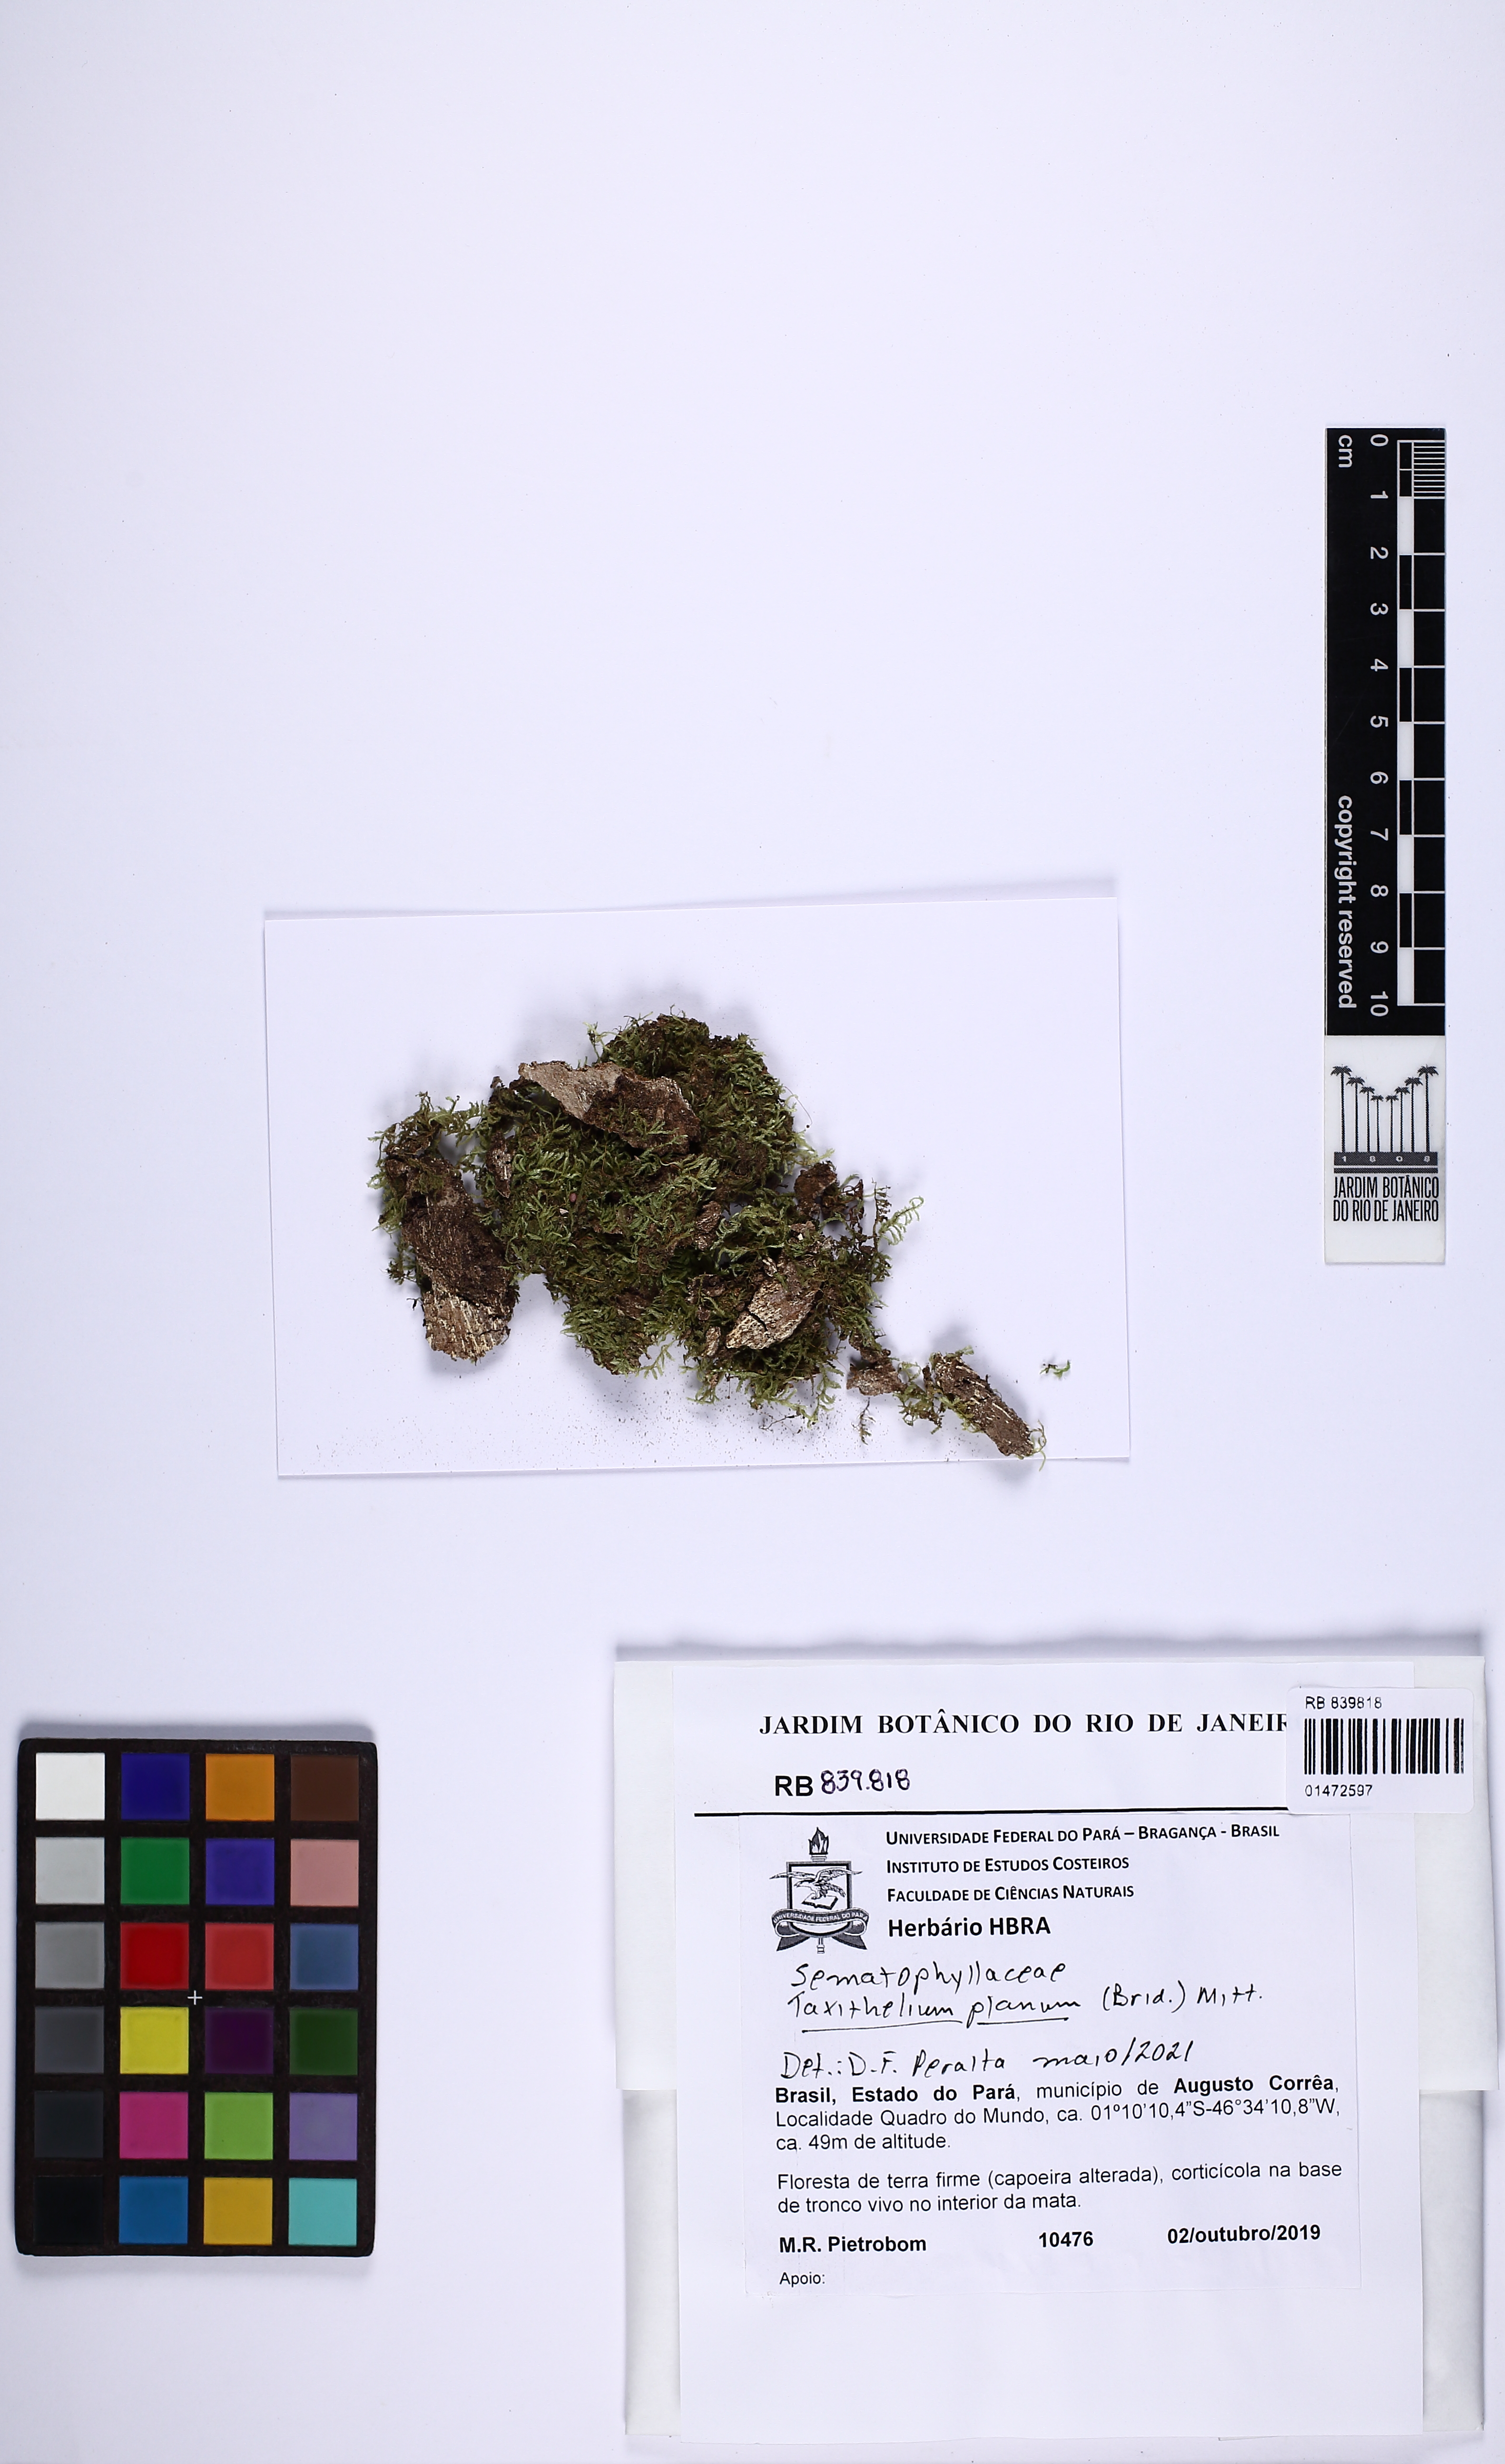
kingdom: Plantae
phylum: Bryophyta
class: Bryopsida
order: Hypnales
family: Pylaisiadelphaceae
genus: Taxithelium
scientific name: Taxithelium planum
